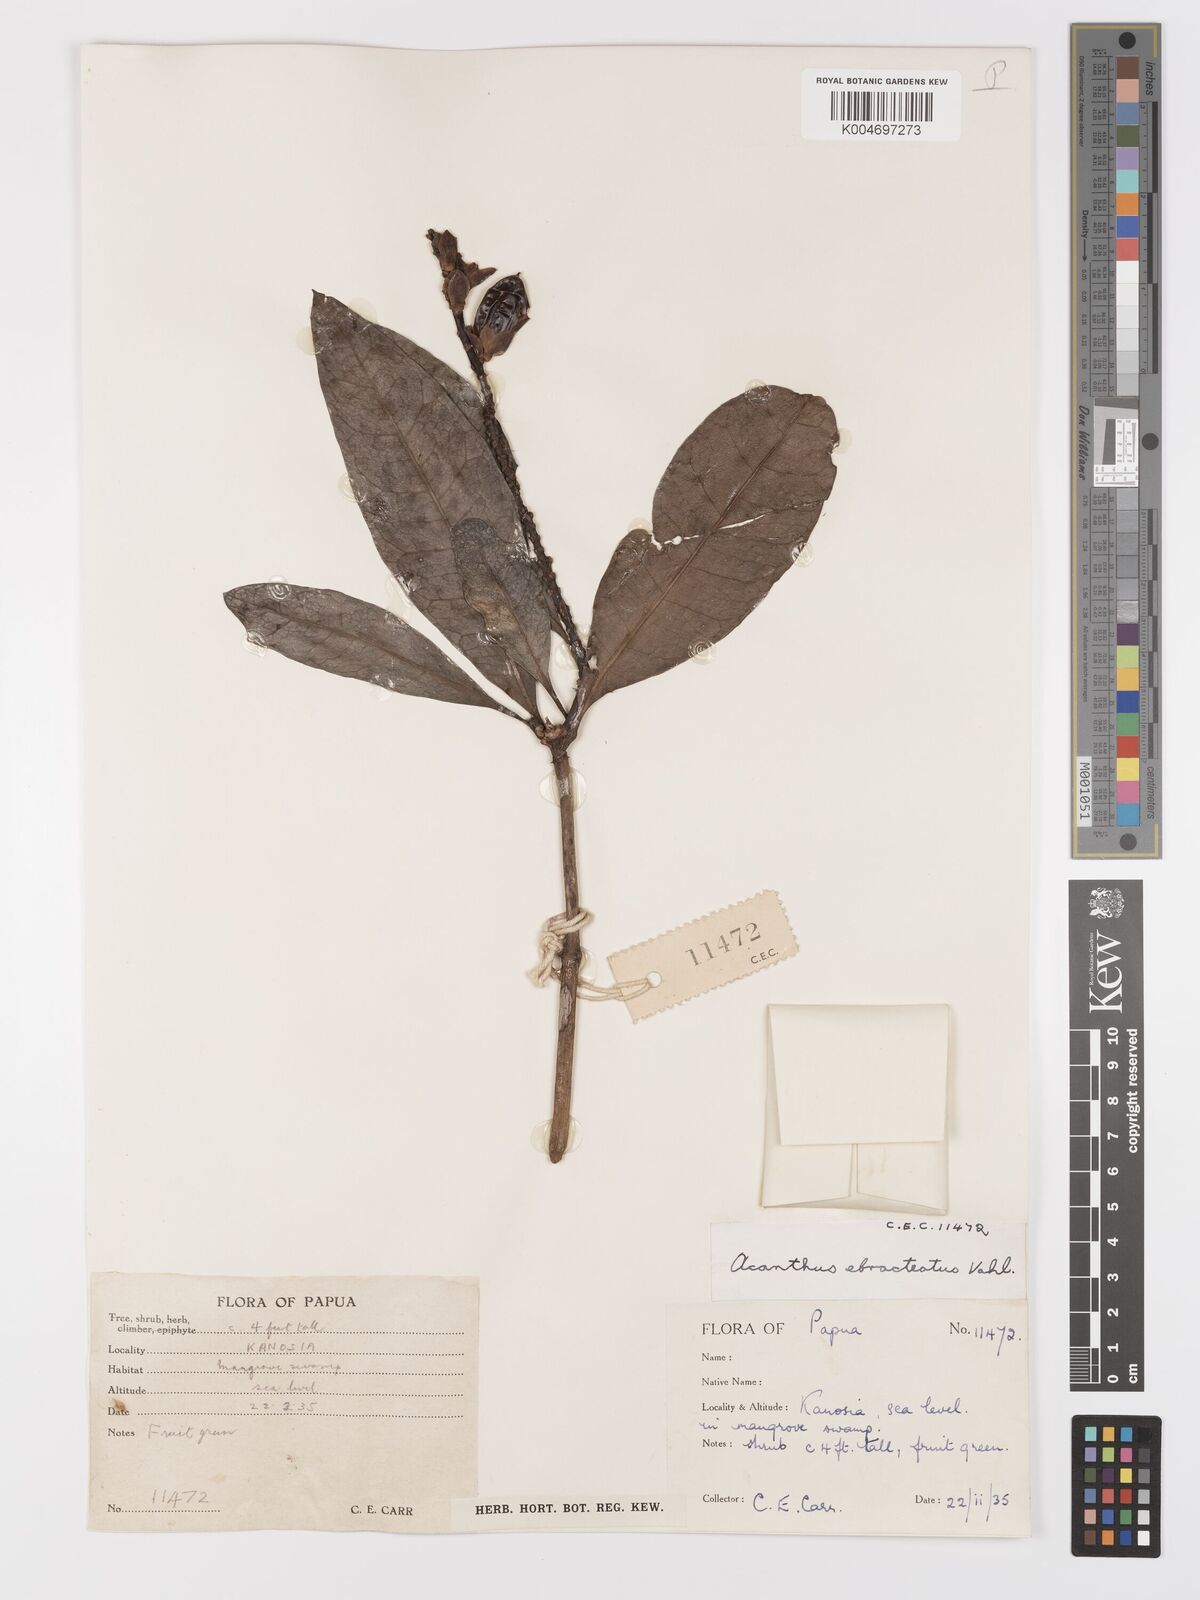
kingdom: Plantae
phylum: Tracheophyta
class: Magnoliopsida
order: Lamiales
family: Acanthaceae
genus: Acanthus
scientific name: Acanthus ebracteatus
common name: Acanthus
